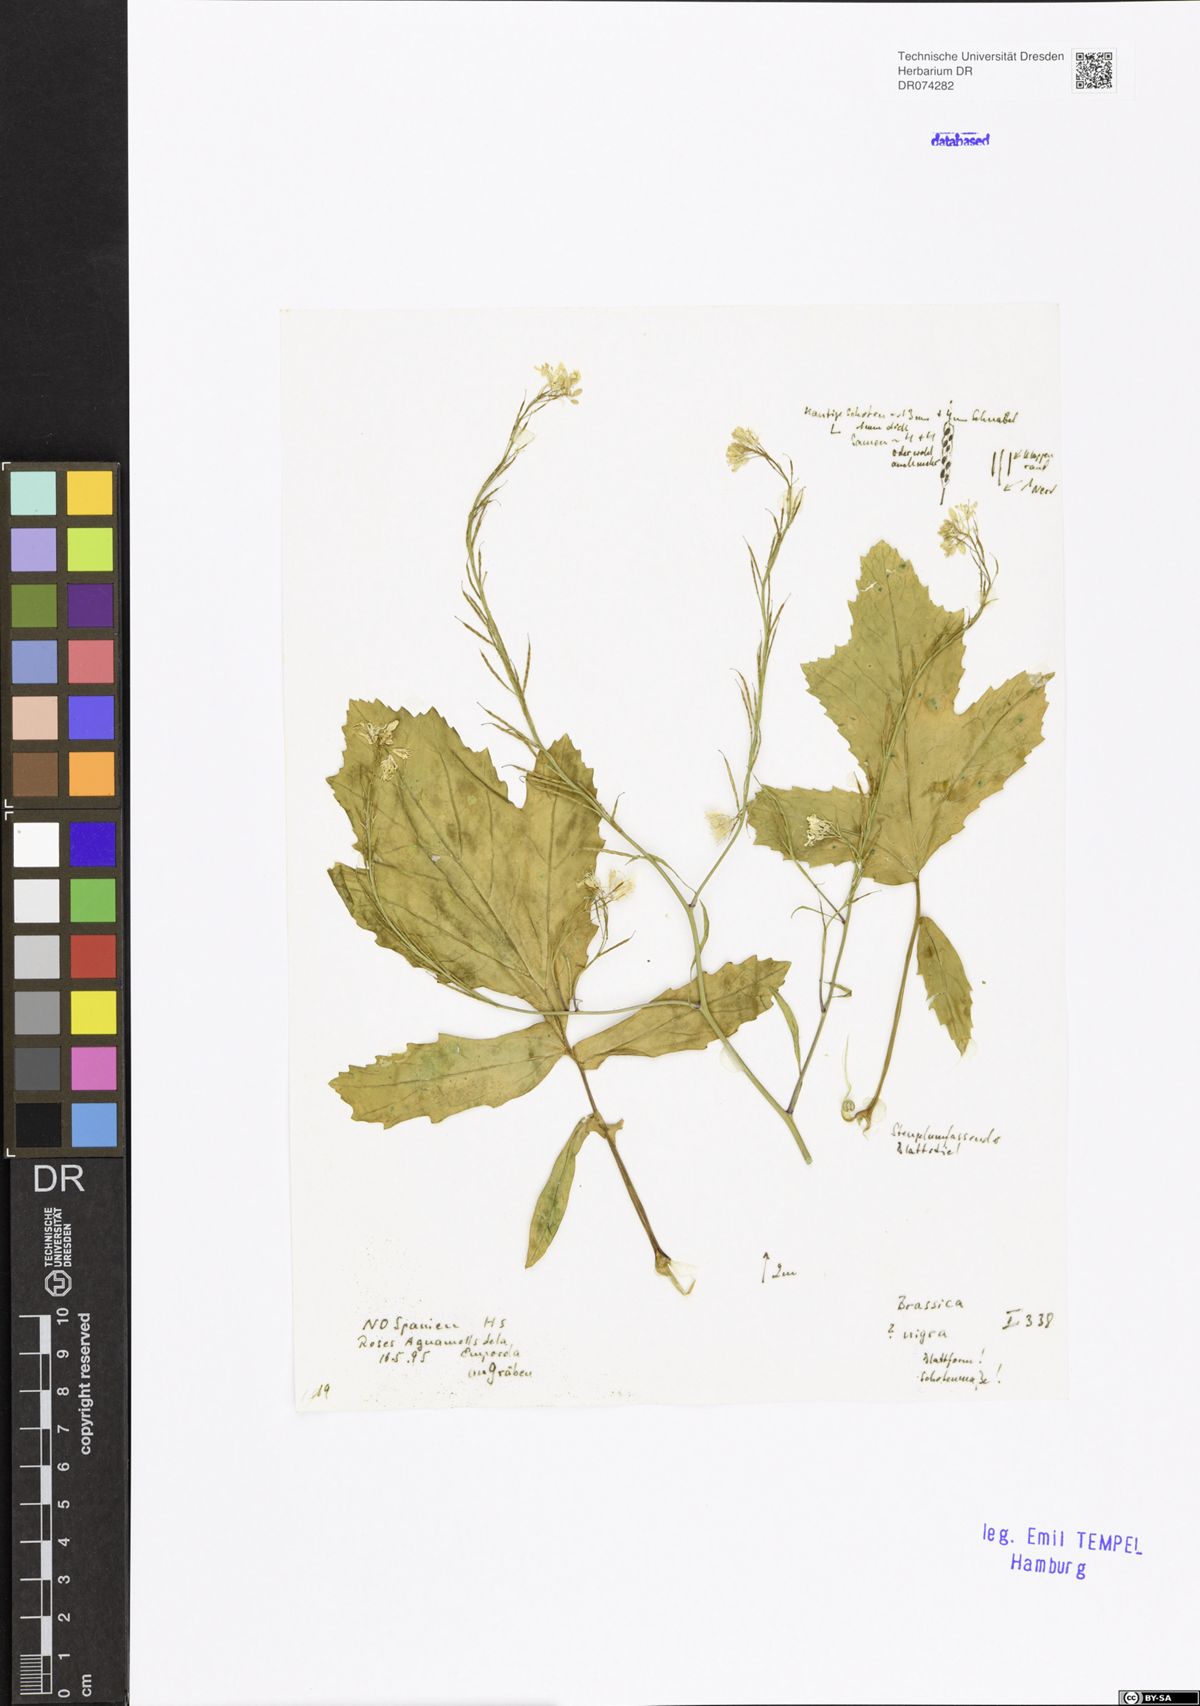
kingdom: Plantae
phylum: Tracheophyta
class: Magnoliopsida
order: Brassicales
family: Brassicaceae
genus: Brassica
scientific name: Brassica nigra
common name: Black mustard
